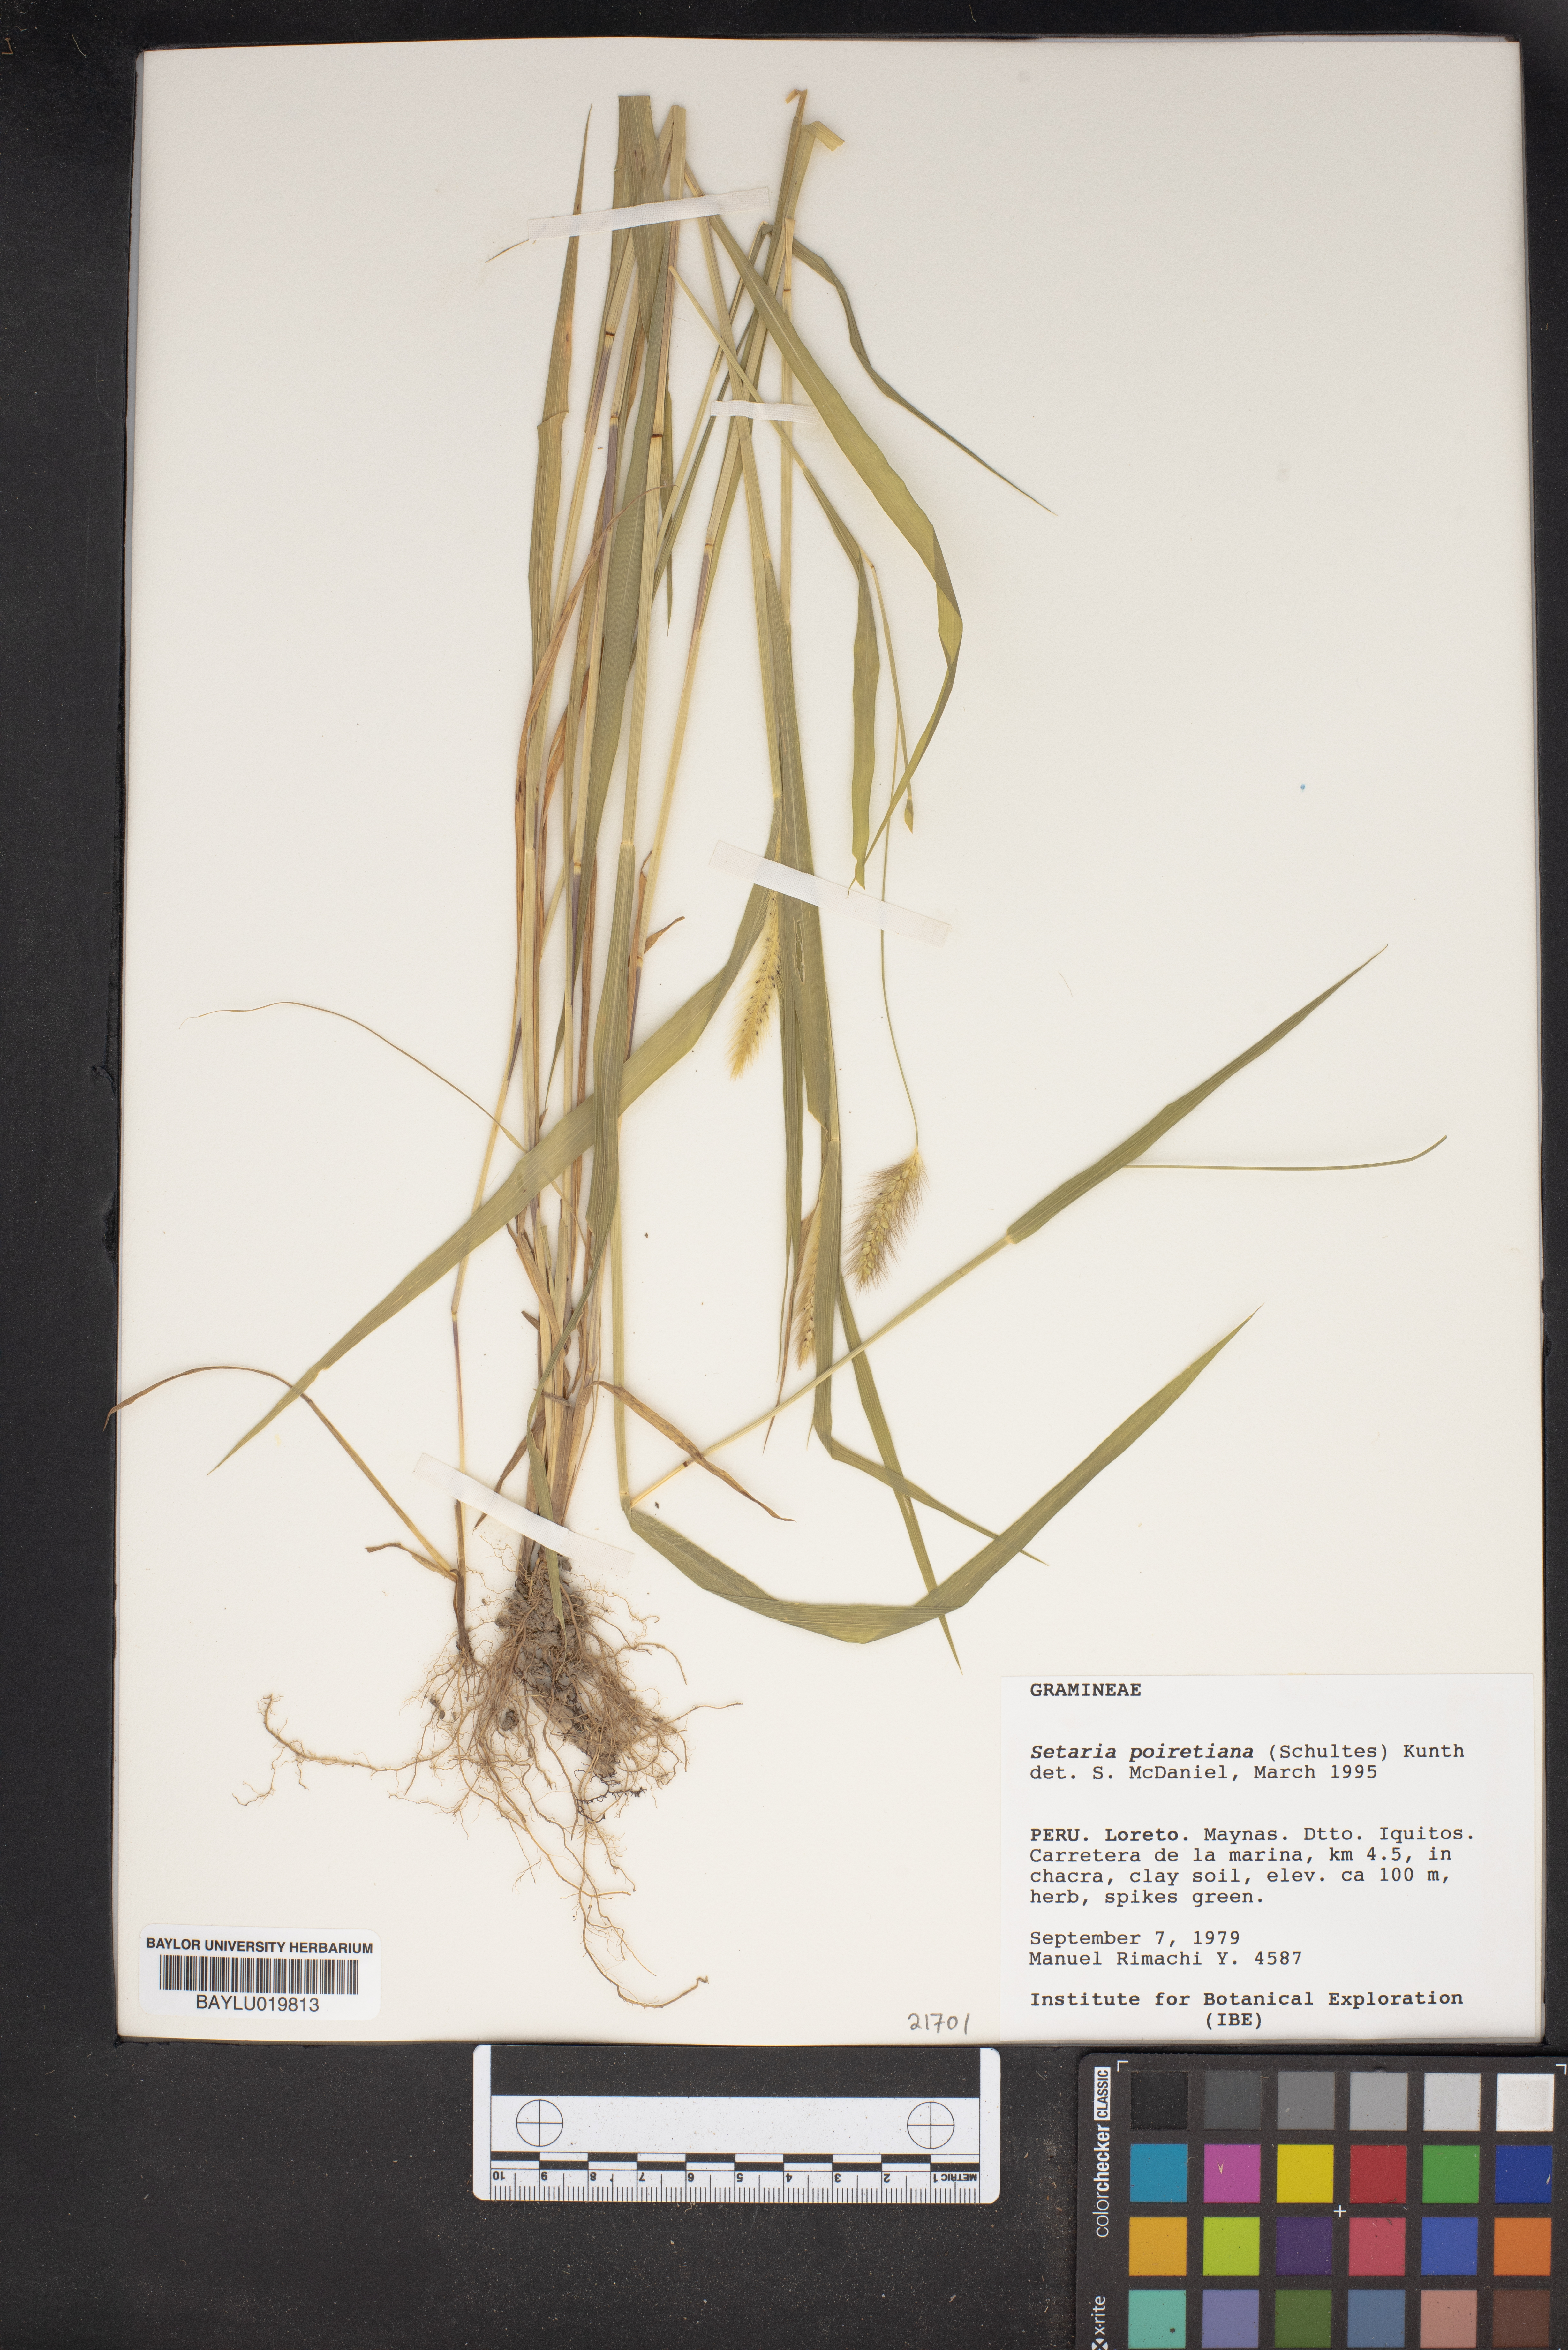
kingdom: Plantae
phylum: Tracheophyta
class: Liliopsida
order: Poales
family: Poaceae
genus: Setaria
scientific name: Setaria poiretiana
